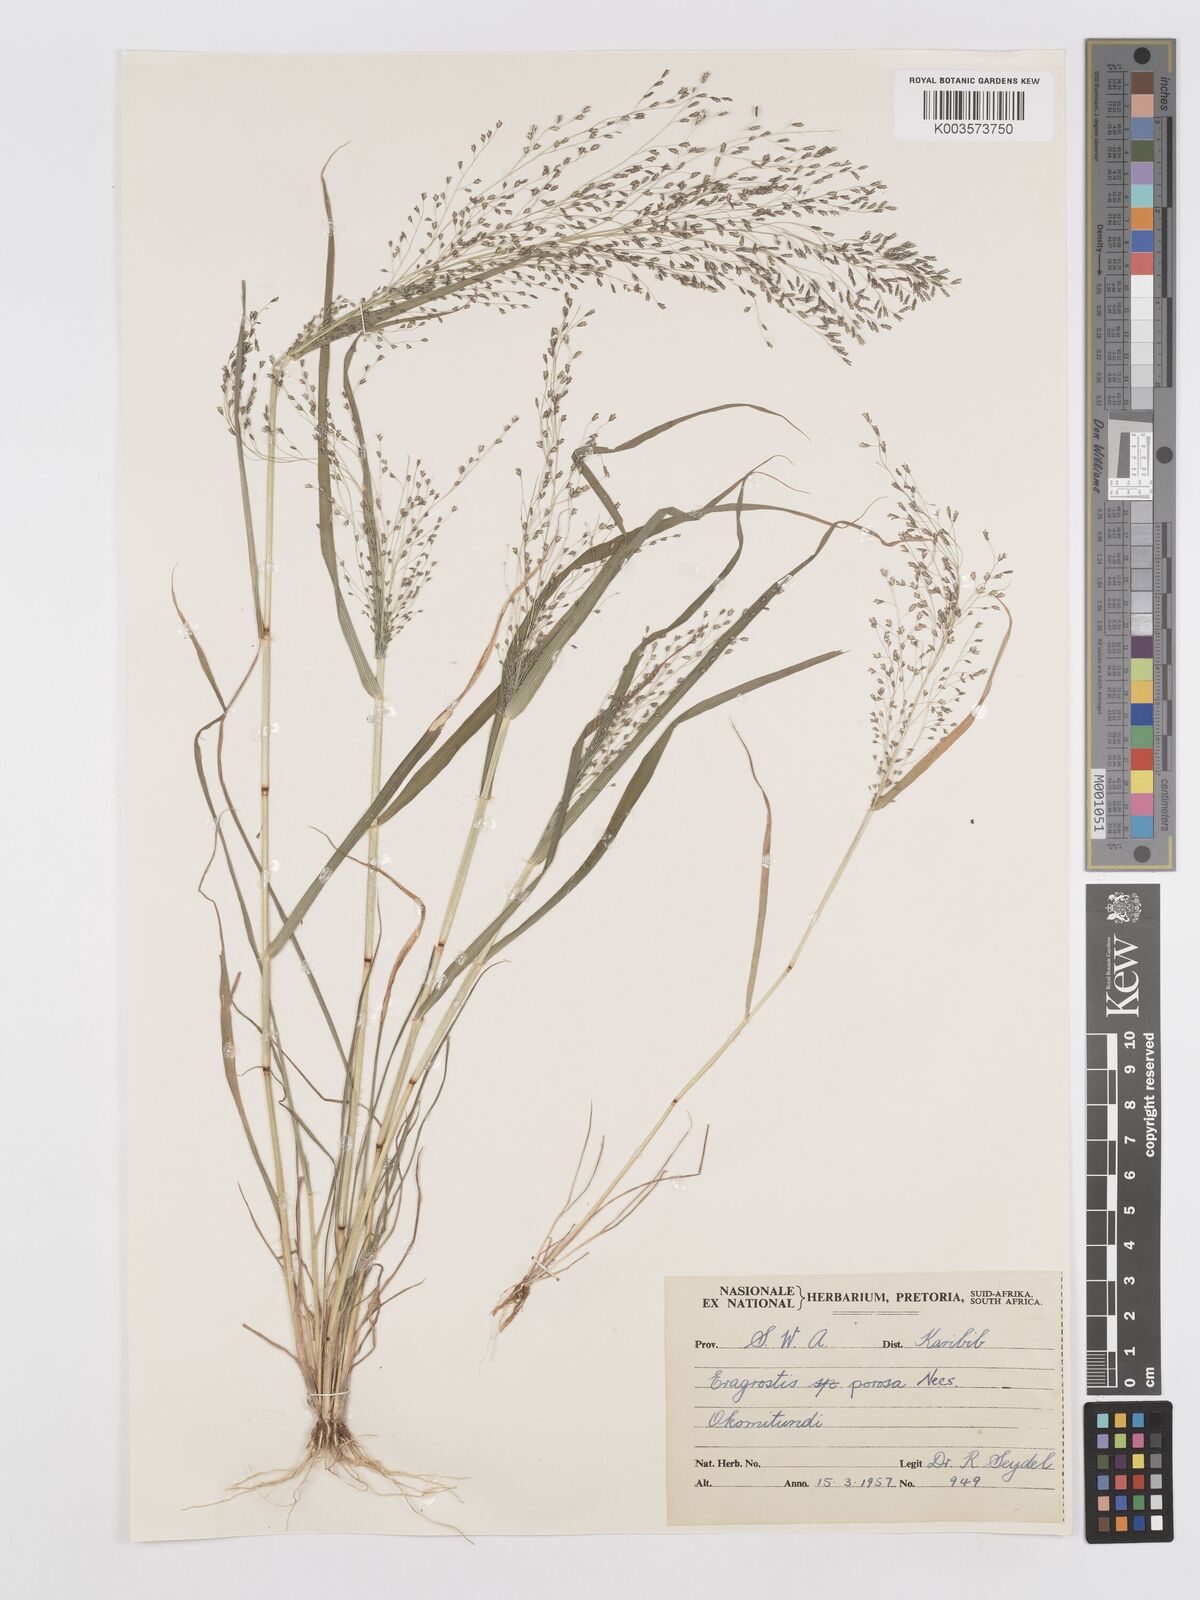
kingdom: Plantae
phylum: Tracheophyta
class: Liliopsida
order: Poales
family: Poaceae
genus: Eragrostis
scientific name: Eragrostis porosa
